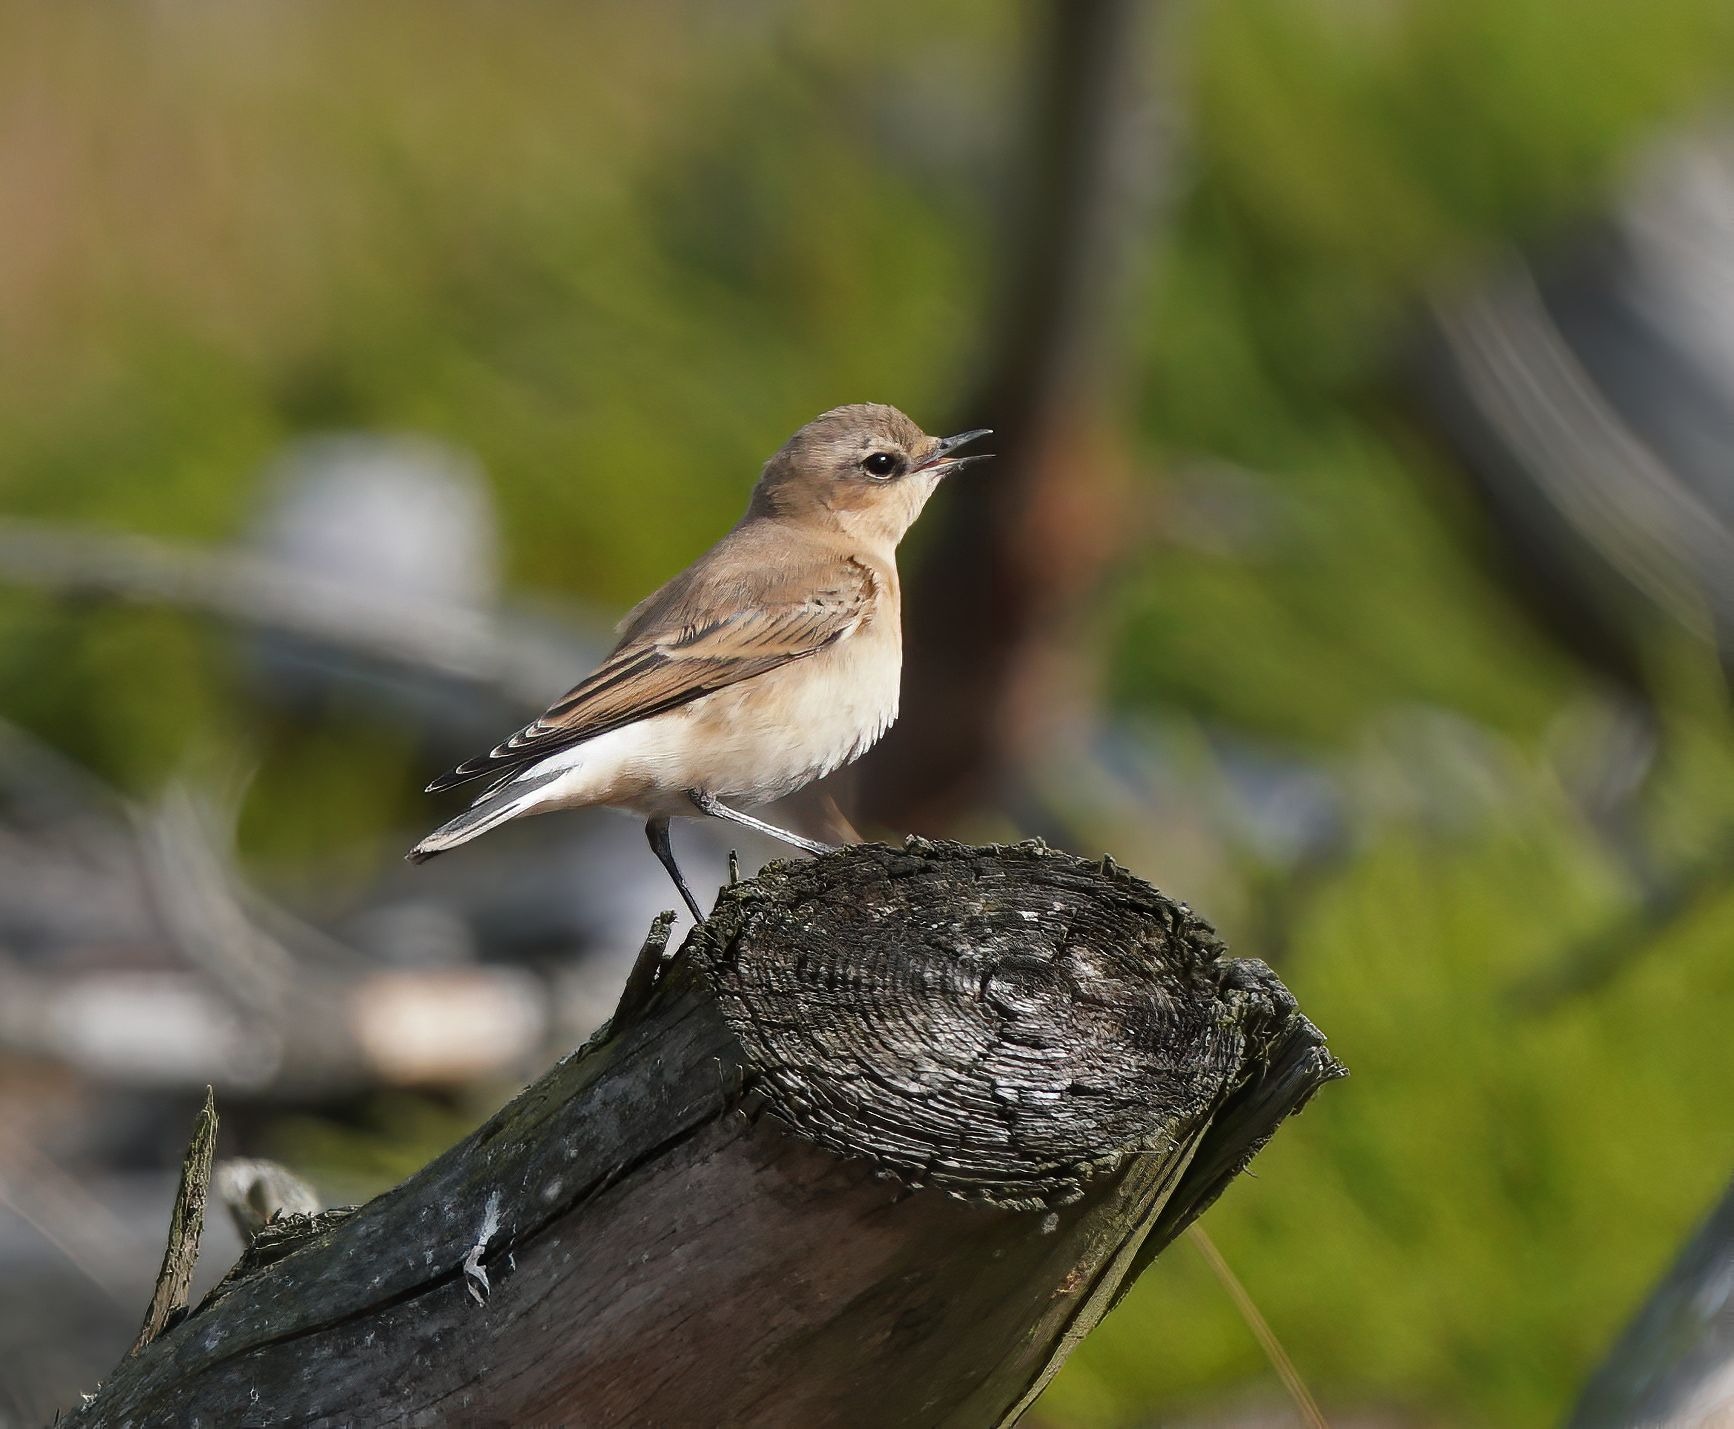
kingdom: Animalia
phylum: Chordata
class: Aves
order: Passeriformes
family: Muscicapidae
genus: Oenanthe
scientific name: Oenanthe oenanthe
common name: Stenpikker
